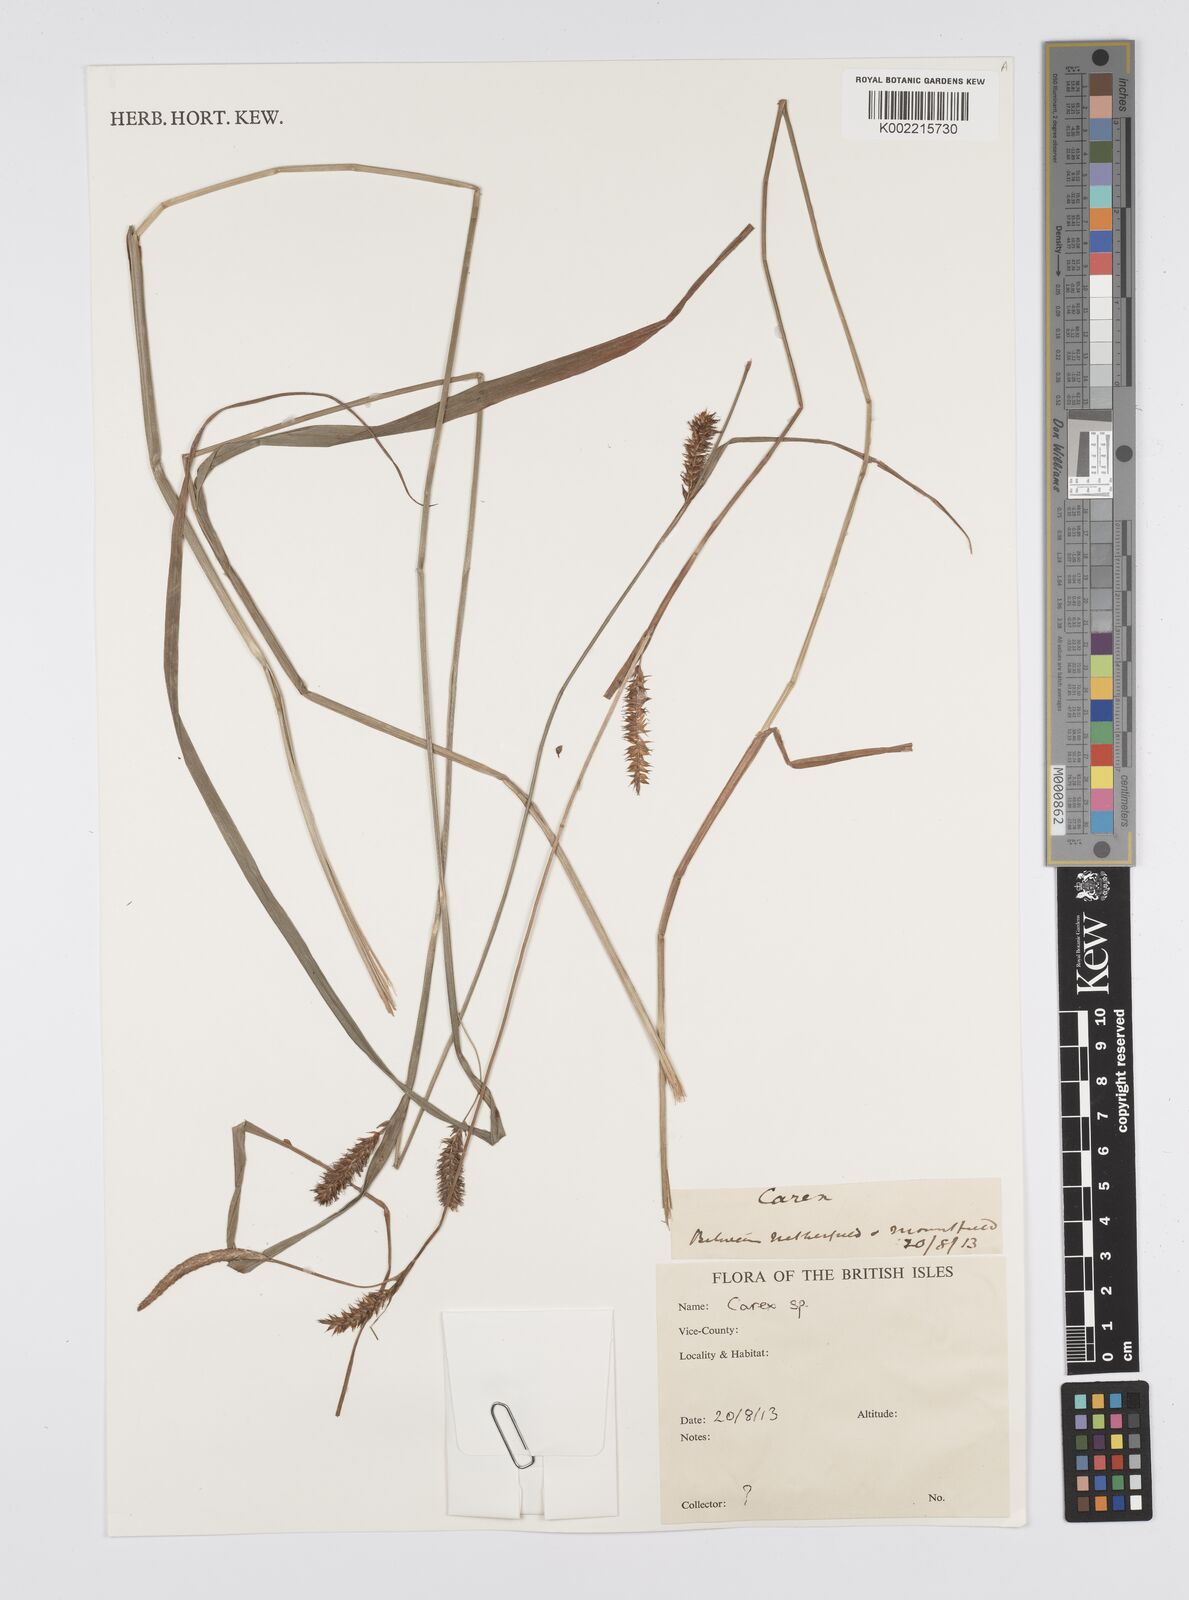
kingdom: Plantae
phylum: Tracheophyta
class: Liliopsida
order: Poales
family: Cyperaceae
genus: Carex
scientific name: Carex
